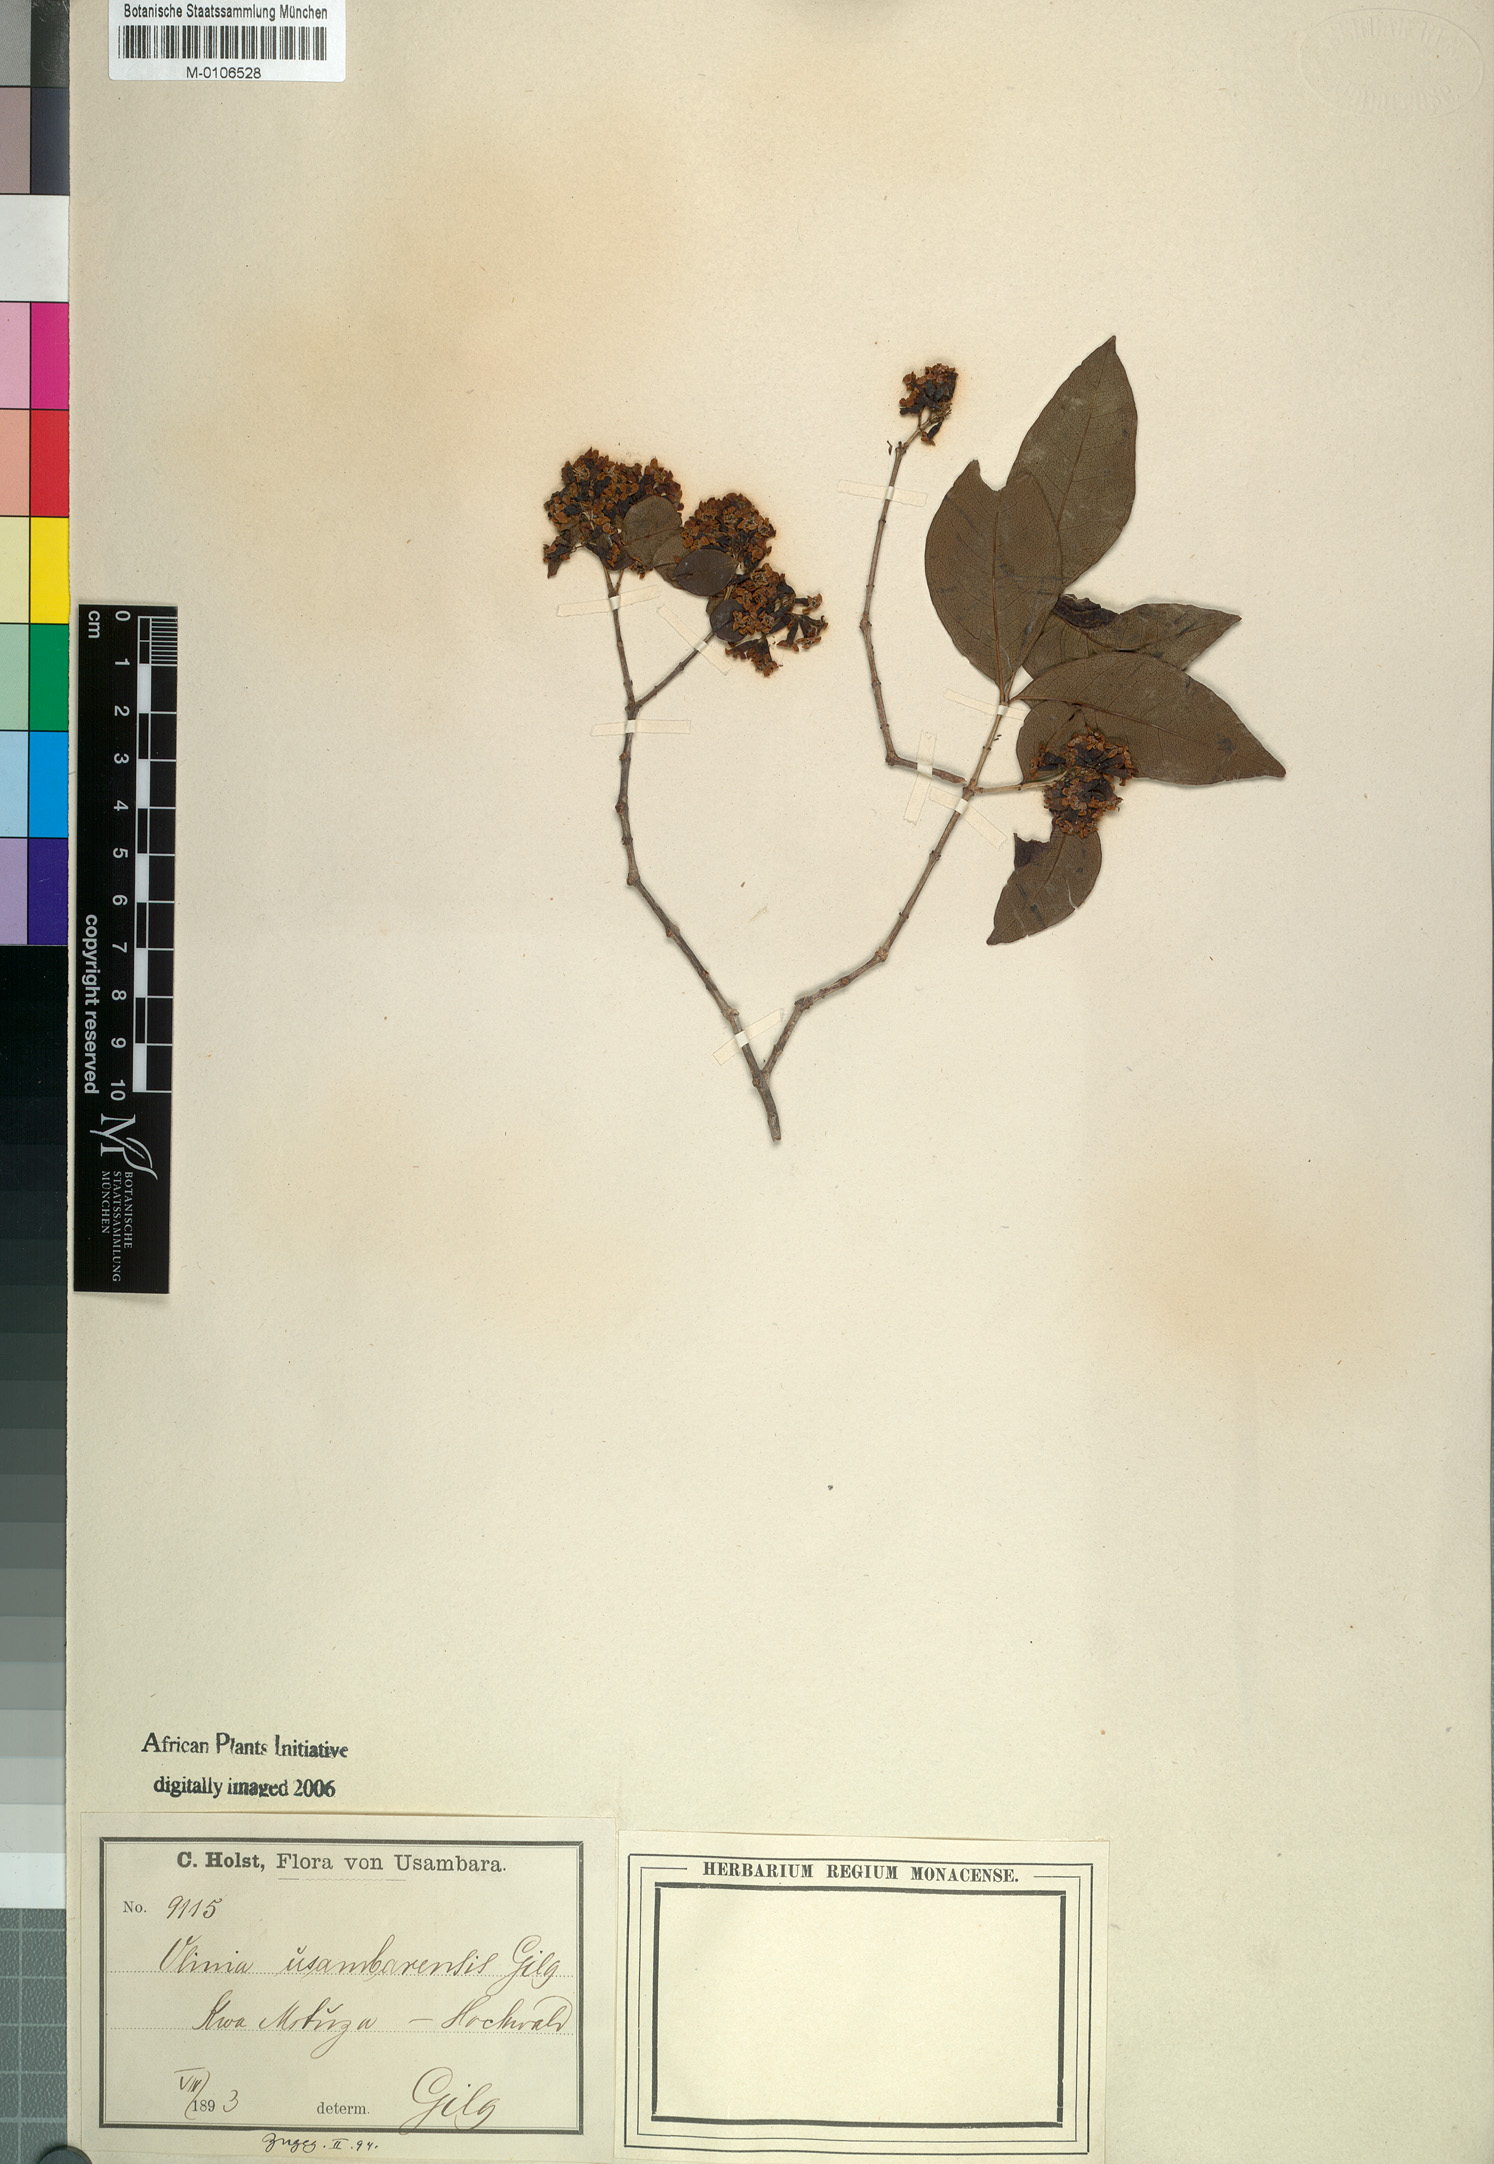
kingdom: Plantae
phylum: Tracheophyta
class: Magnoliopsida
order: Myrtales
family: Penaeaceae
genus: Olinia
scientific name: Olinia rochetiana
